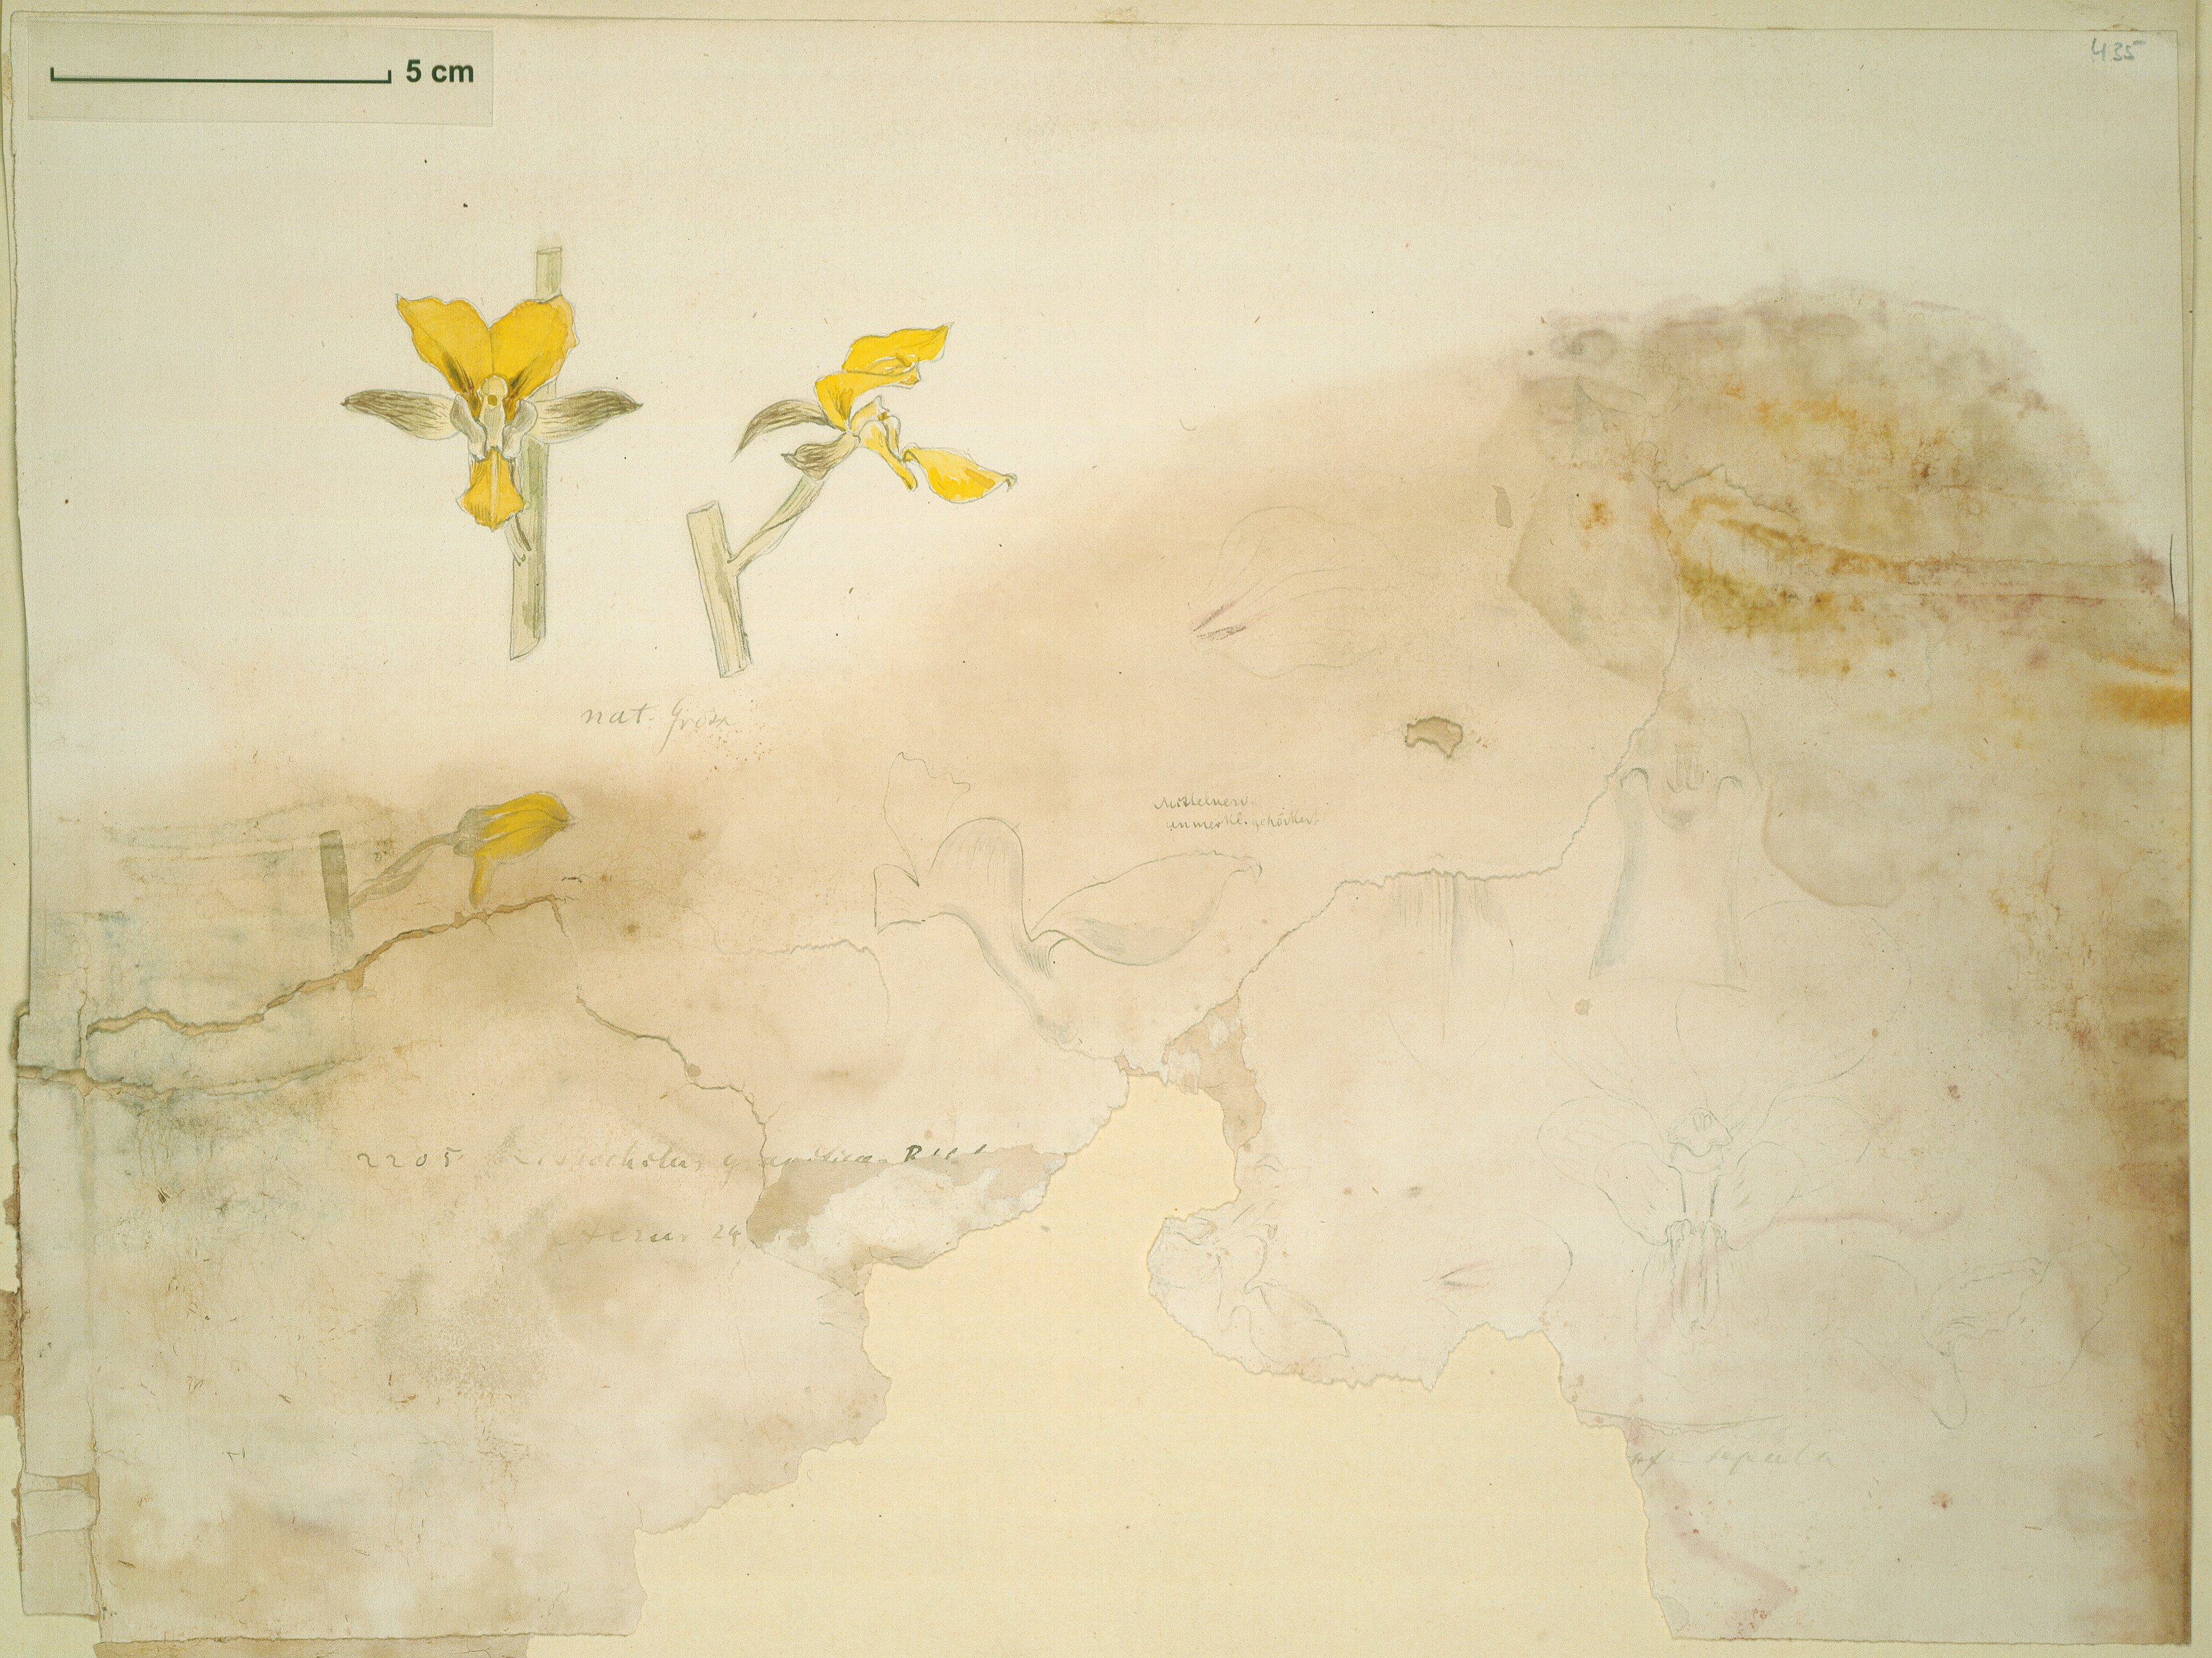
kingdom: Plantae
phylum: Tracheophyta
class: Liliopsida
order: Asparagales
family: Orchidaceae
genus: Eulophia
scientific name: Eulophia speciosa
